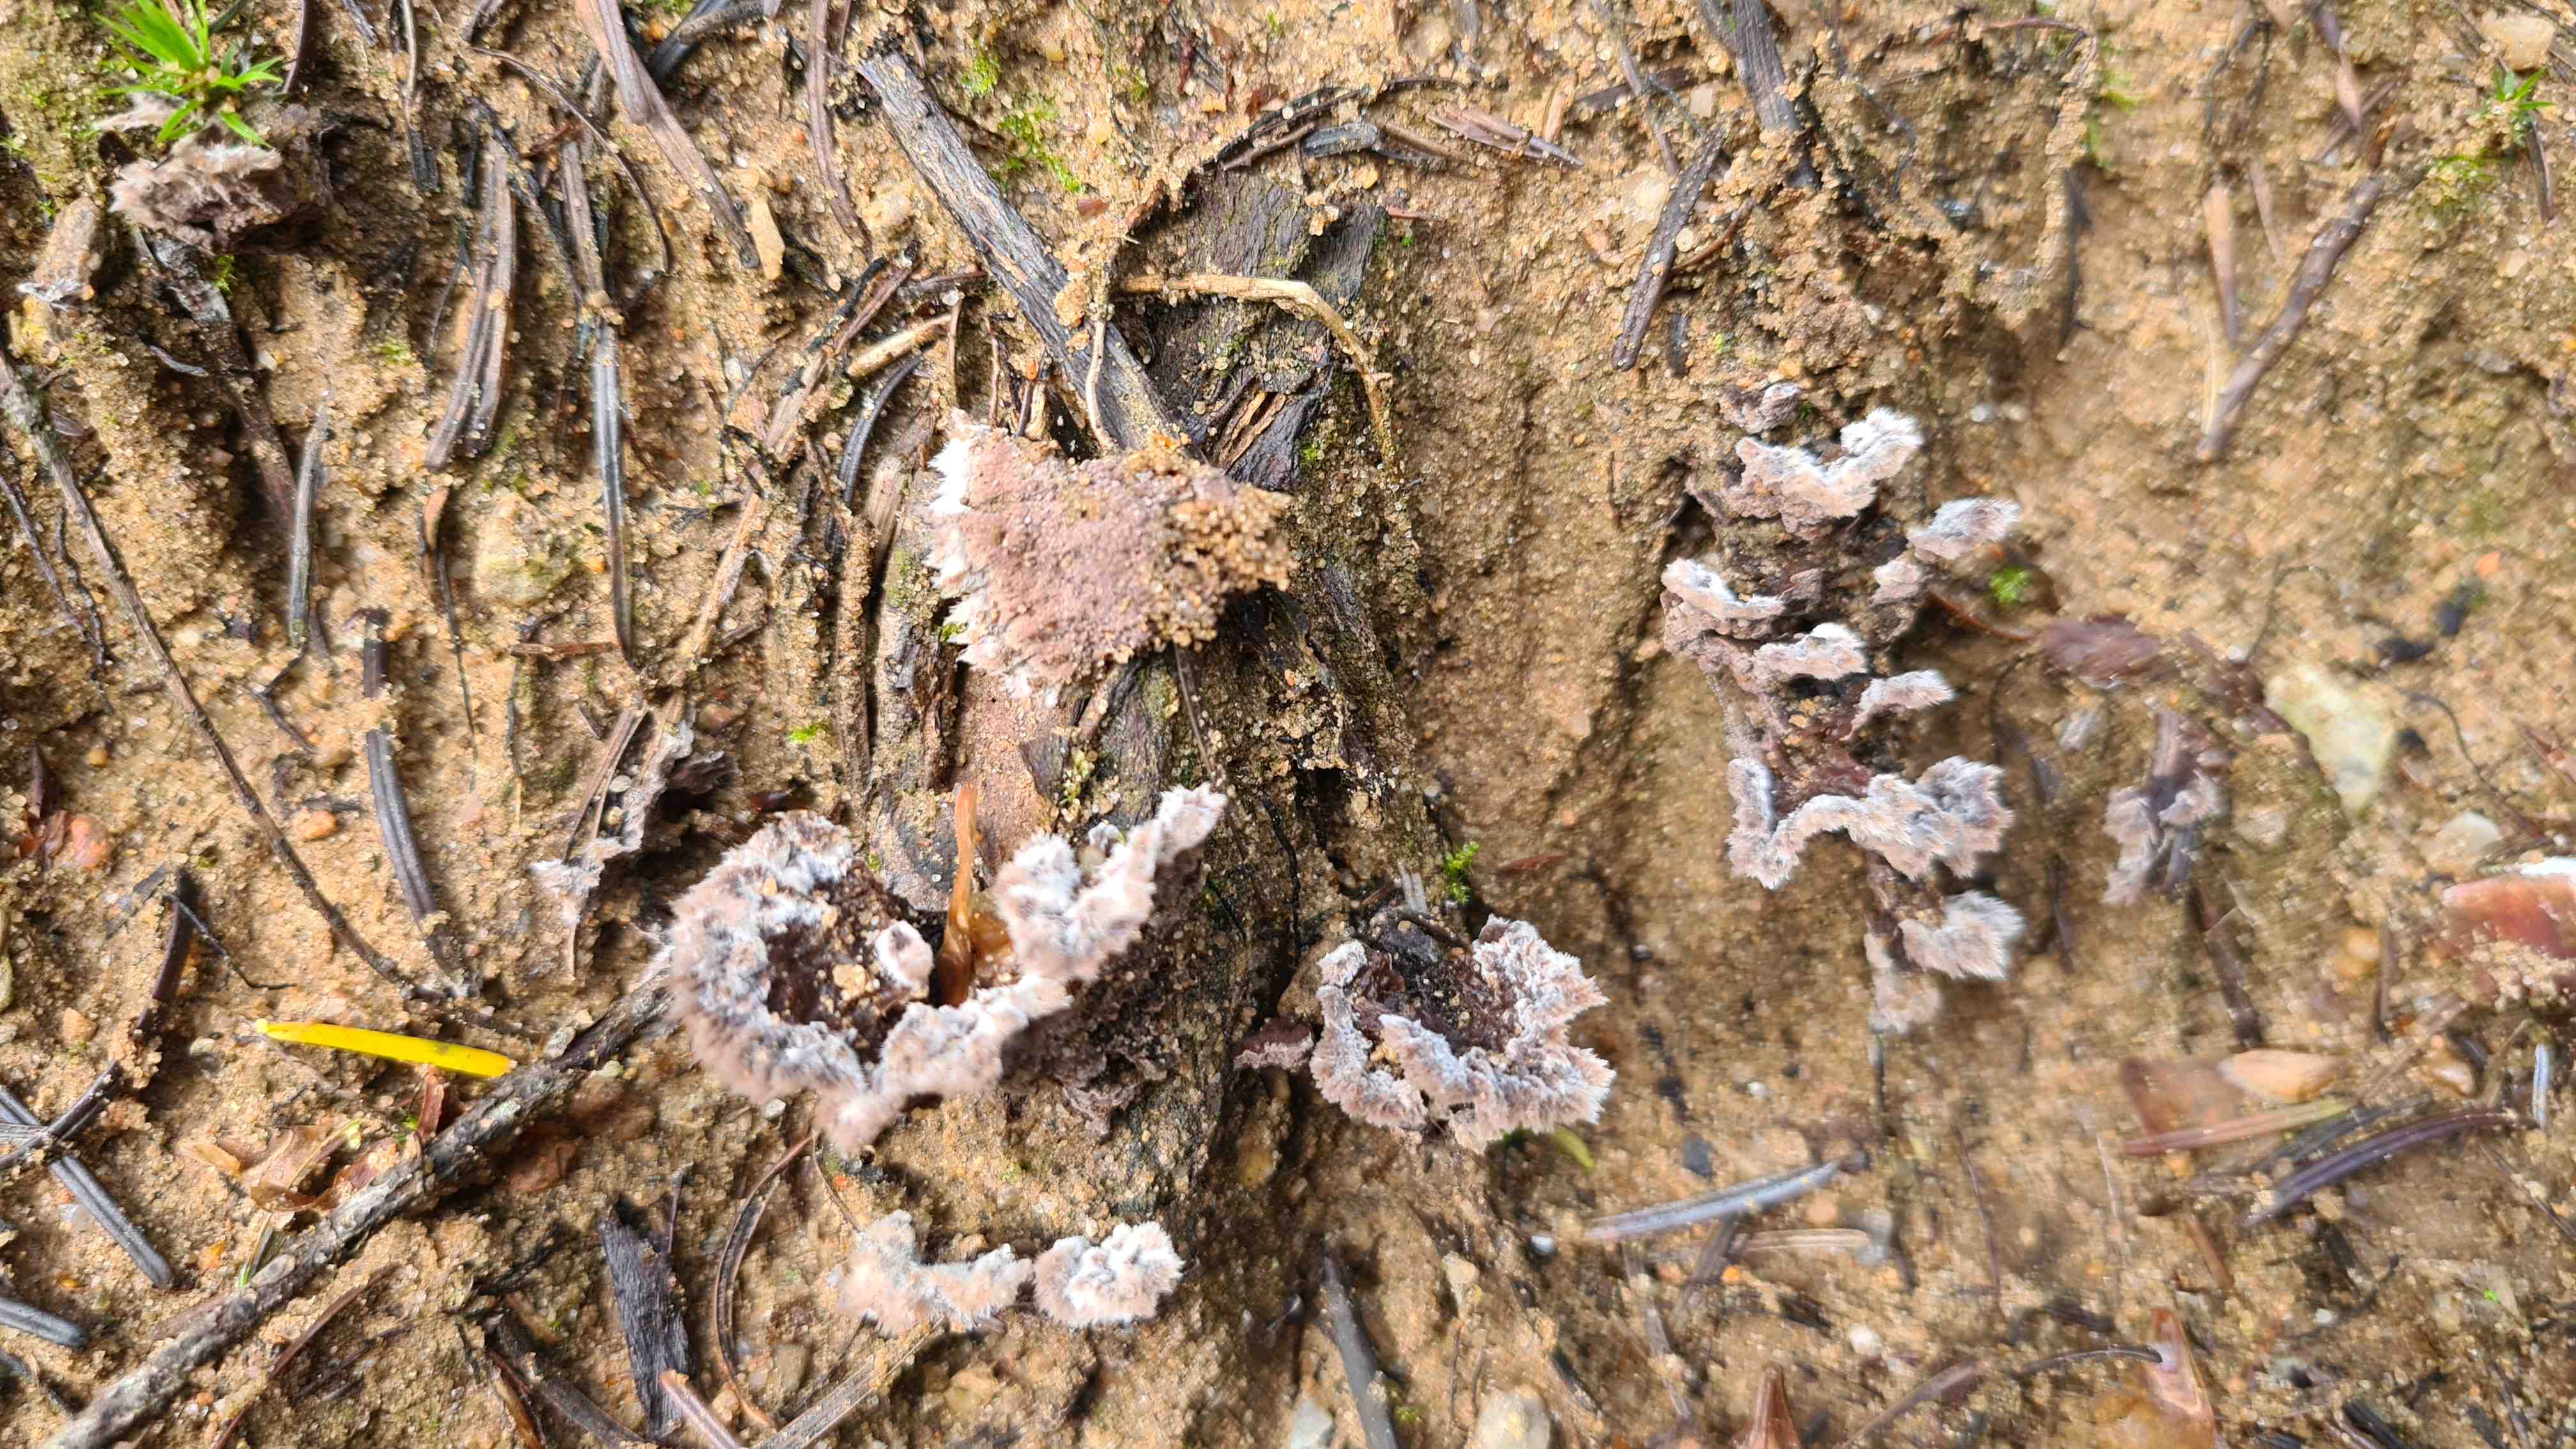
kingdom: Fungi
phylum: Basidiomycota
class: Agaricomycetes
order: Thelephorales
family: Thelephoraceae
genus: Thelephora
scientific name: Thelephora terrestris
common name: fliget frynsesvamp
